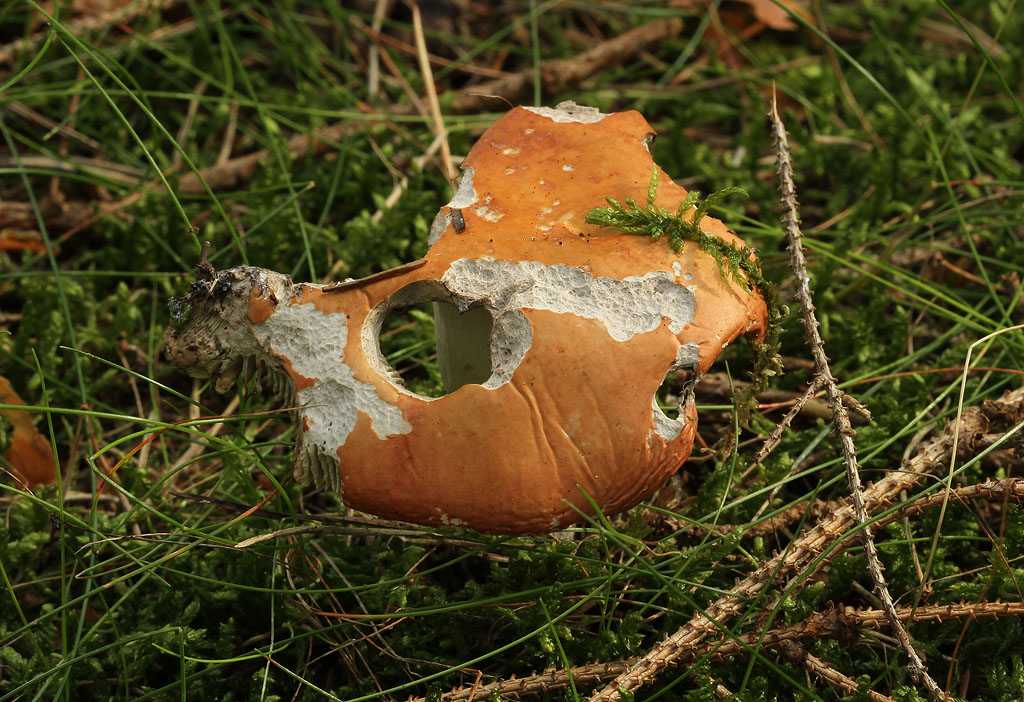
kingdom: Fungi
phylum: Basidiomycota
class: Agaricomycetes
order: Russulales
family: Russulaceae
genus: Russula
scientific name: Russula decolorans
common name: afblegende skørhat
